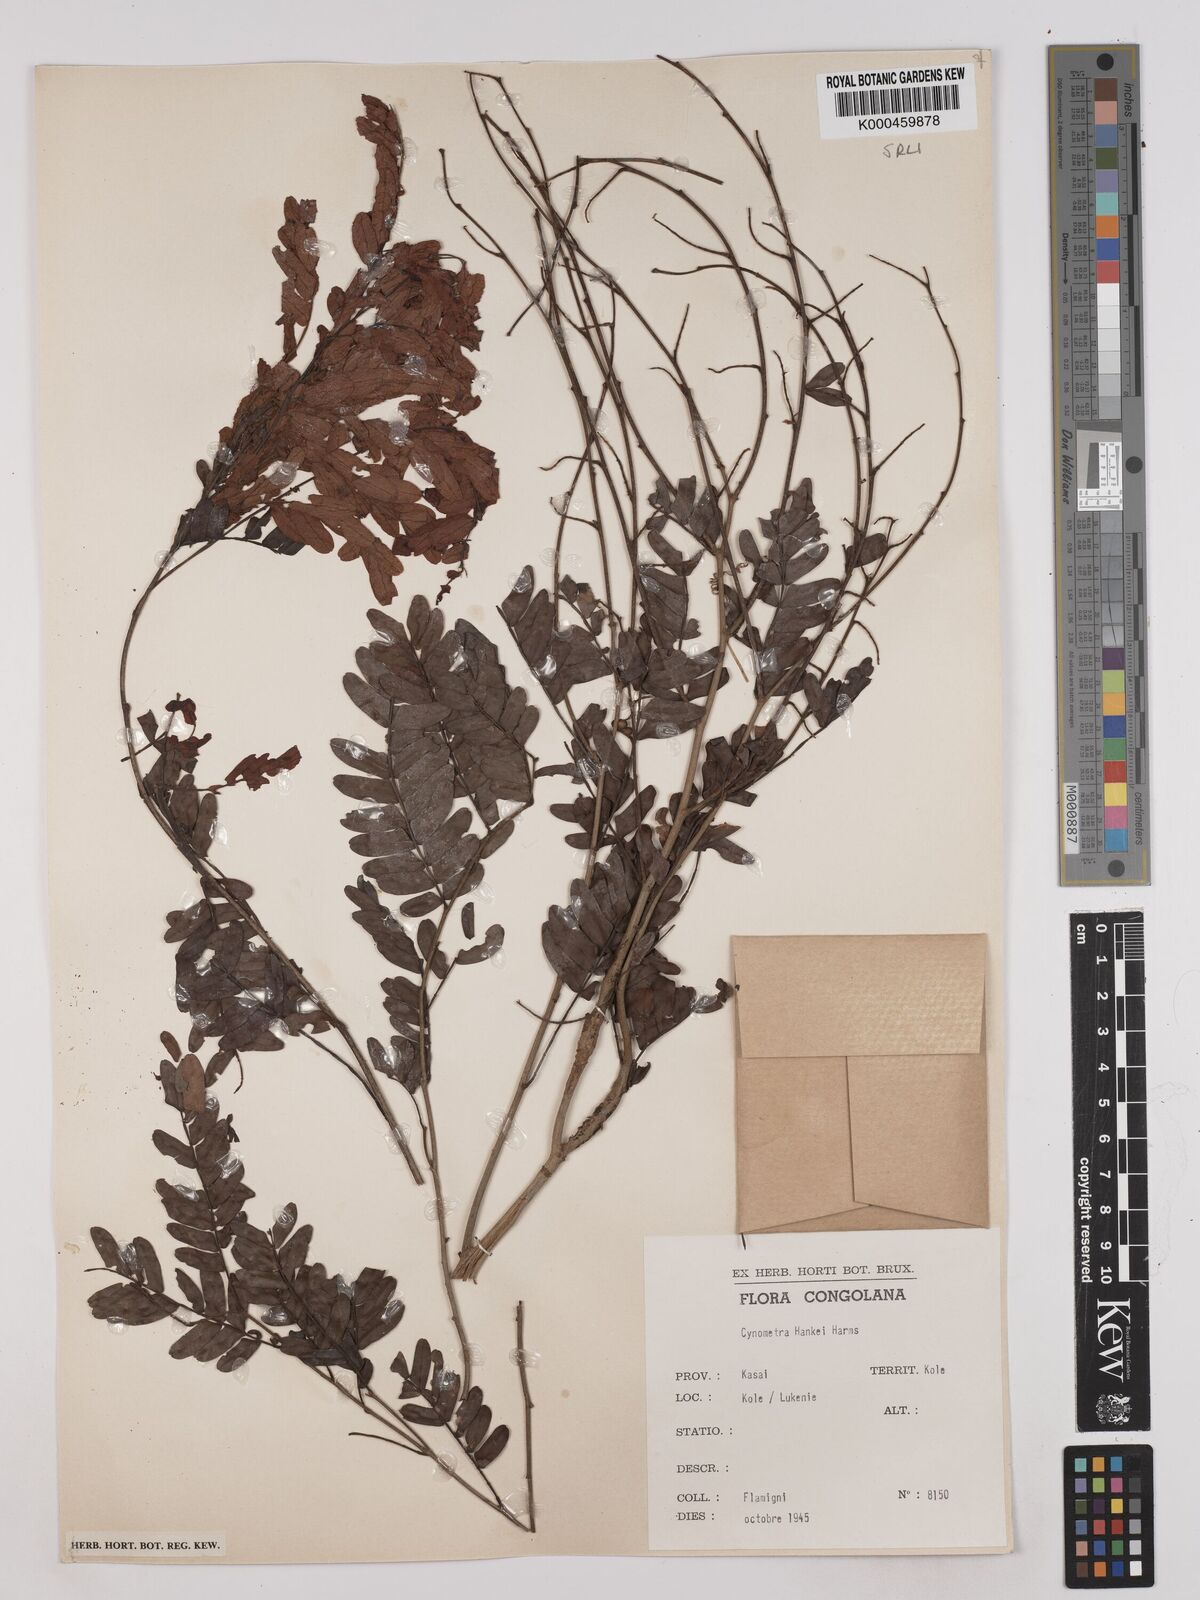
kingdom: Plantae
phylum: Tracheophyta
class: Magnoliopsida
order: Fabales
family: Fabaceae
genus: Cynometra
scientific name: Cynometra hankei
